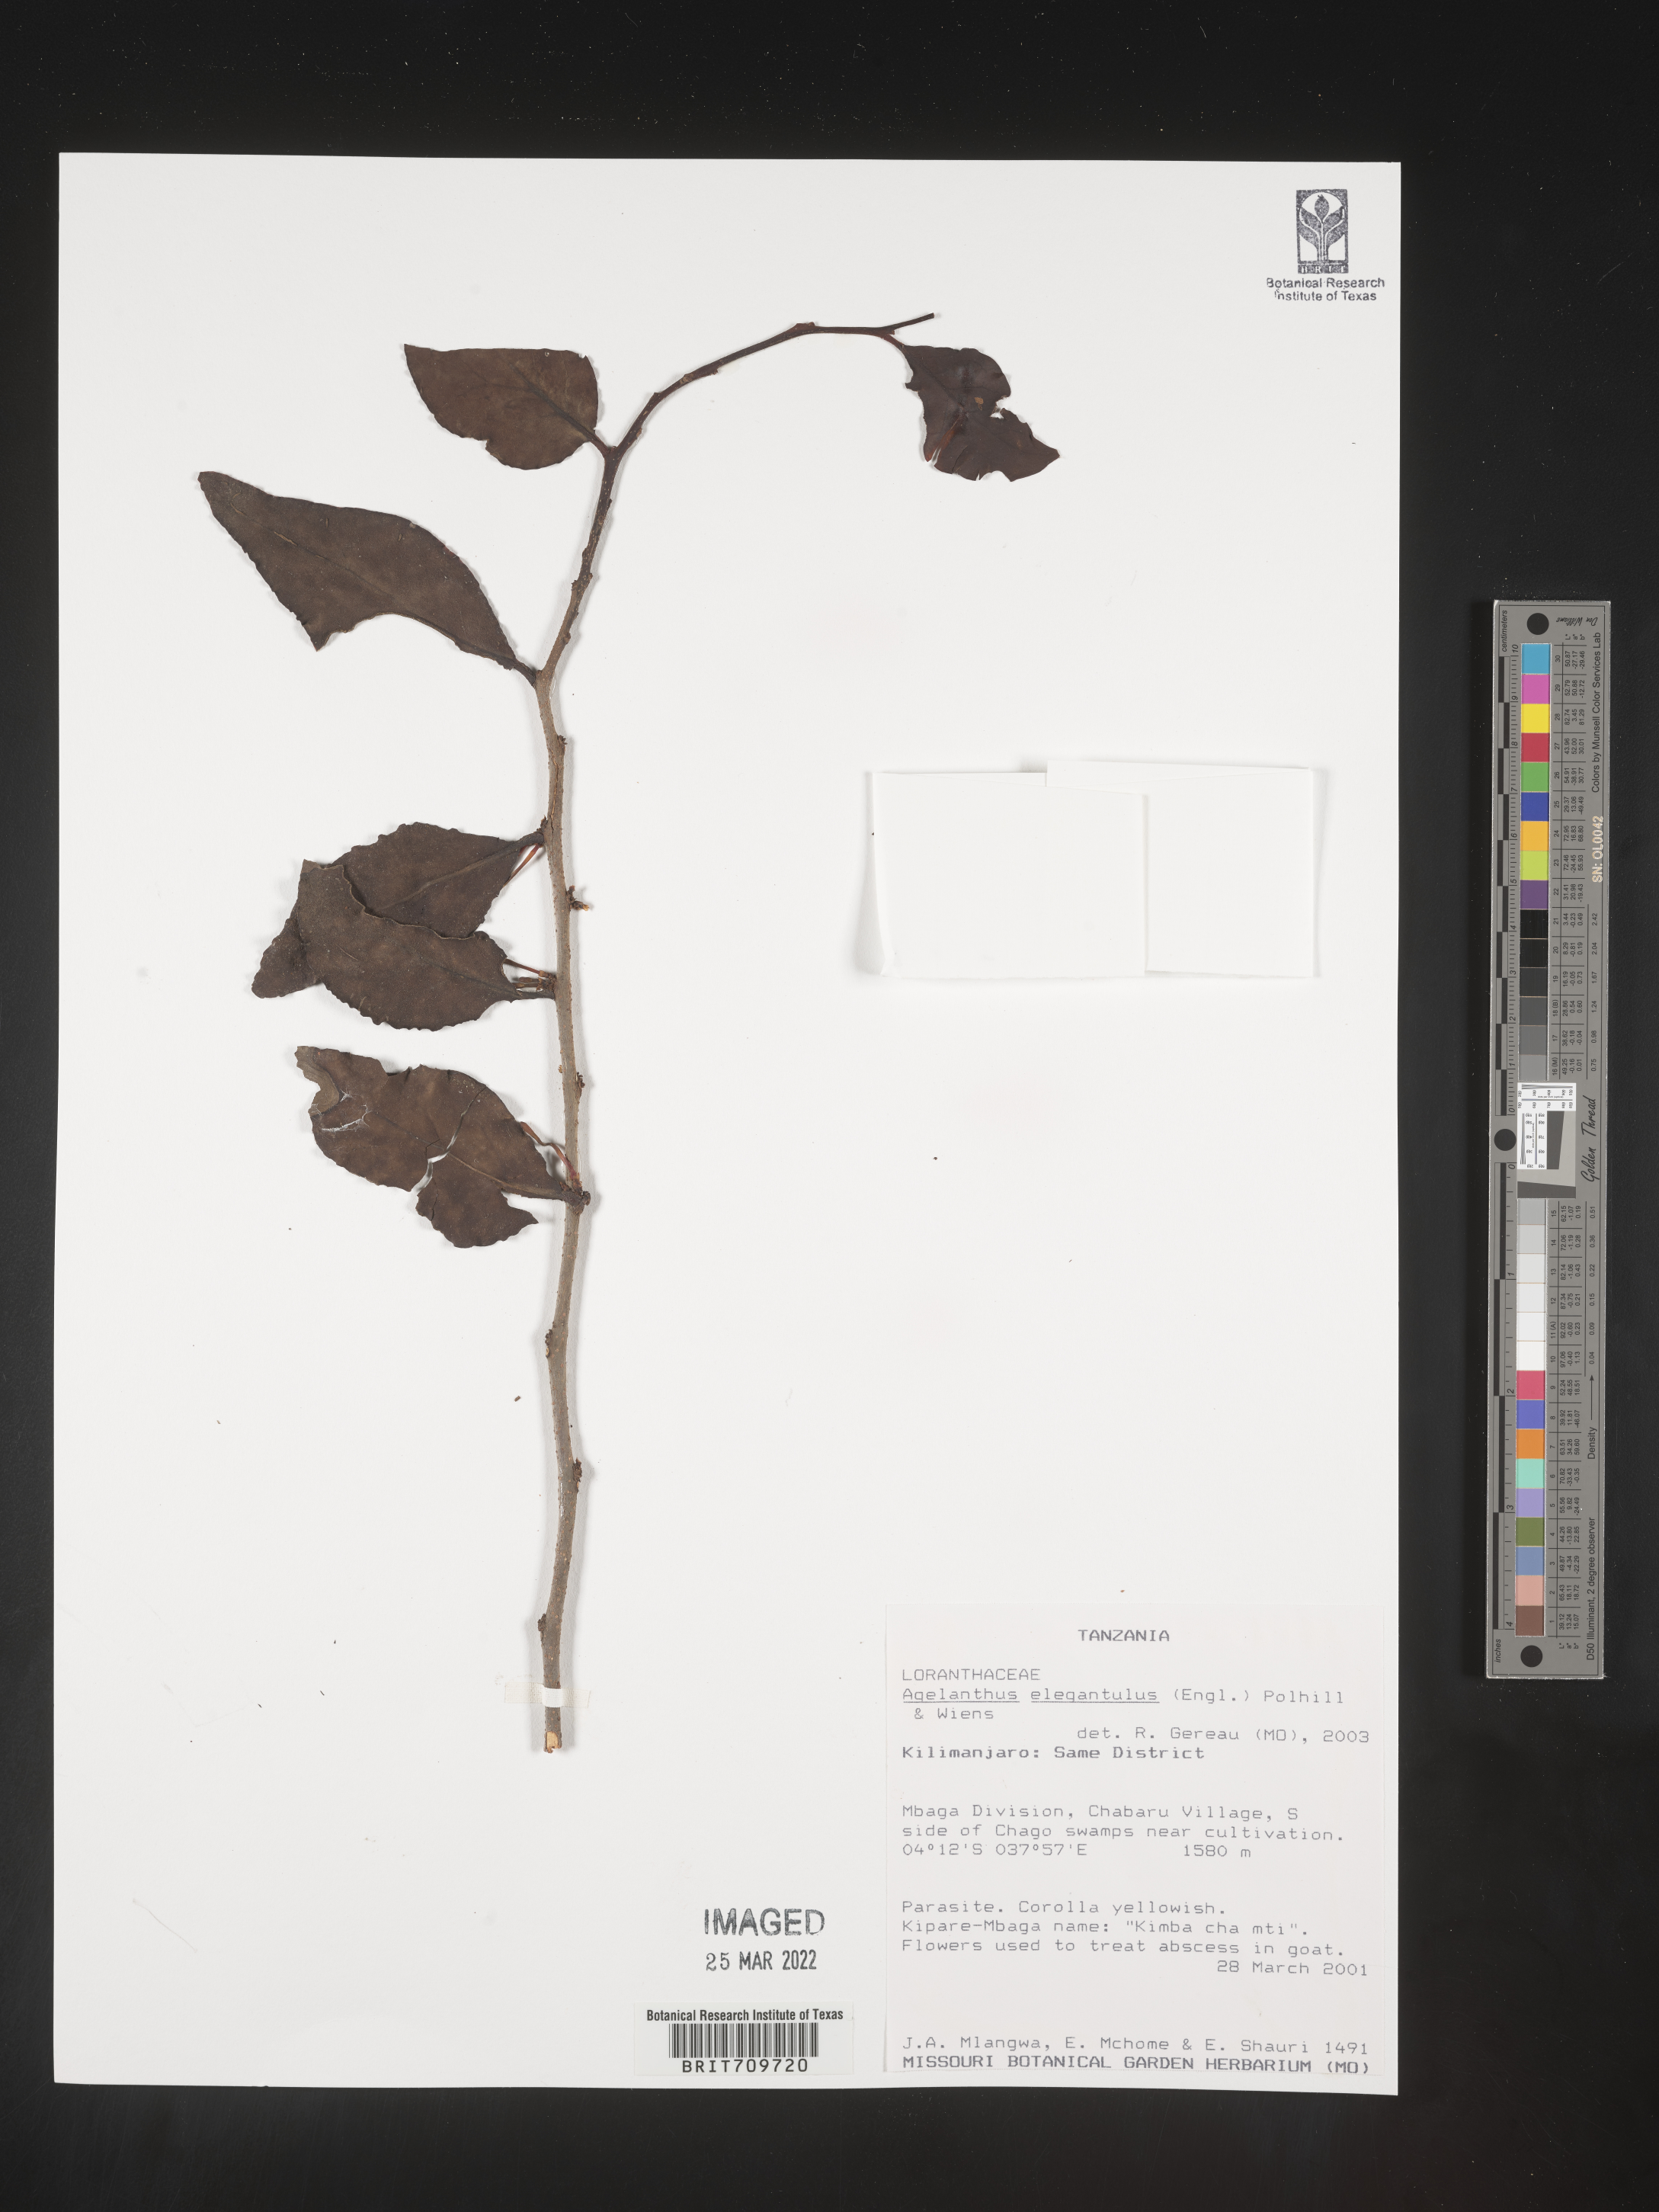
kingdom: Plantae
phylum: Tracheophyta
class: Magnoliopsida
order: Santalales
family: Loranthaceae
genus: Agelanthus
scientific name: Agelanthus
